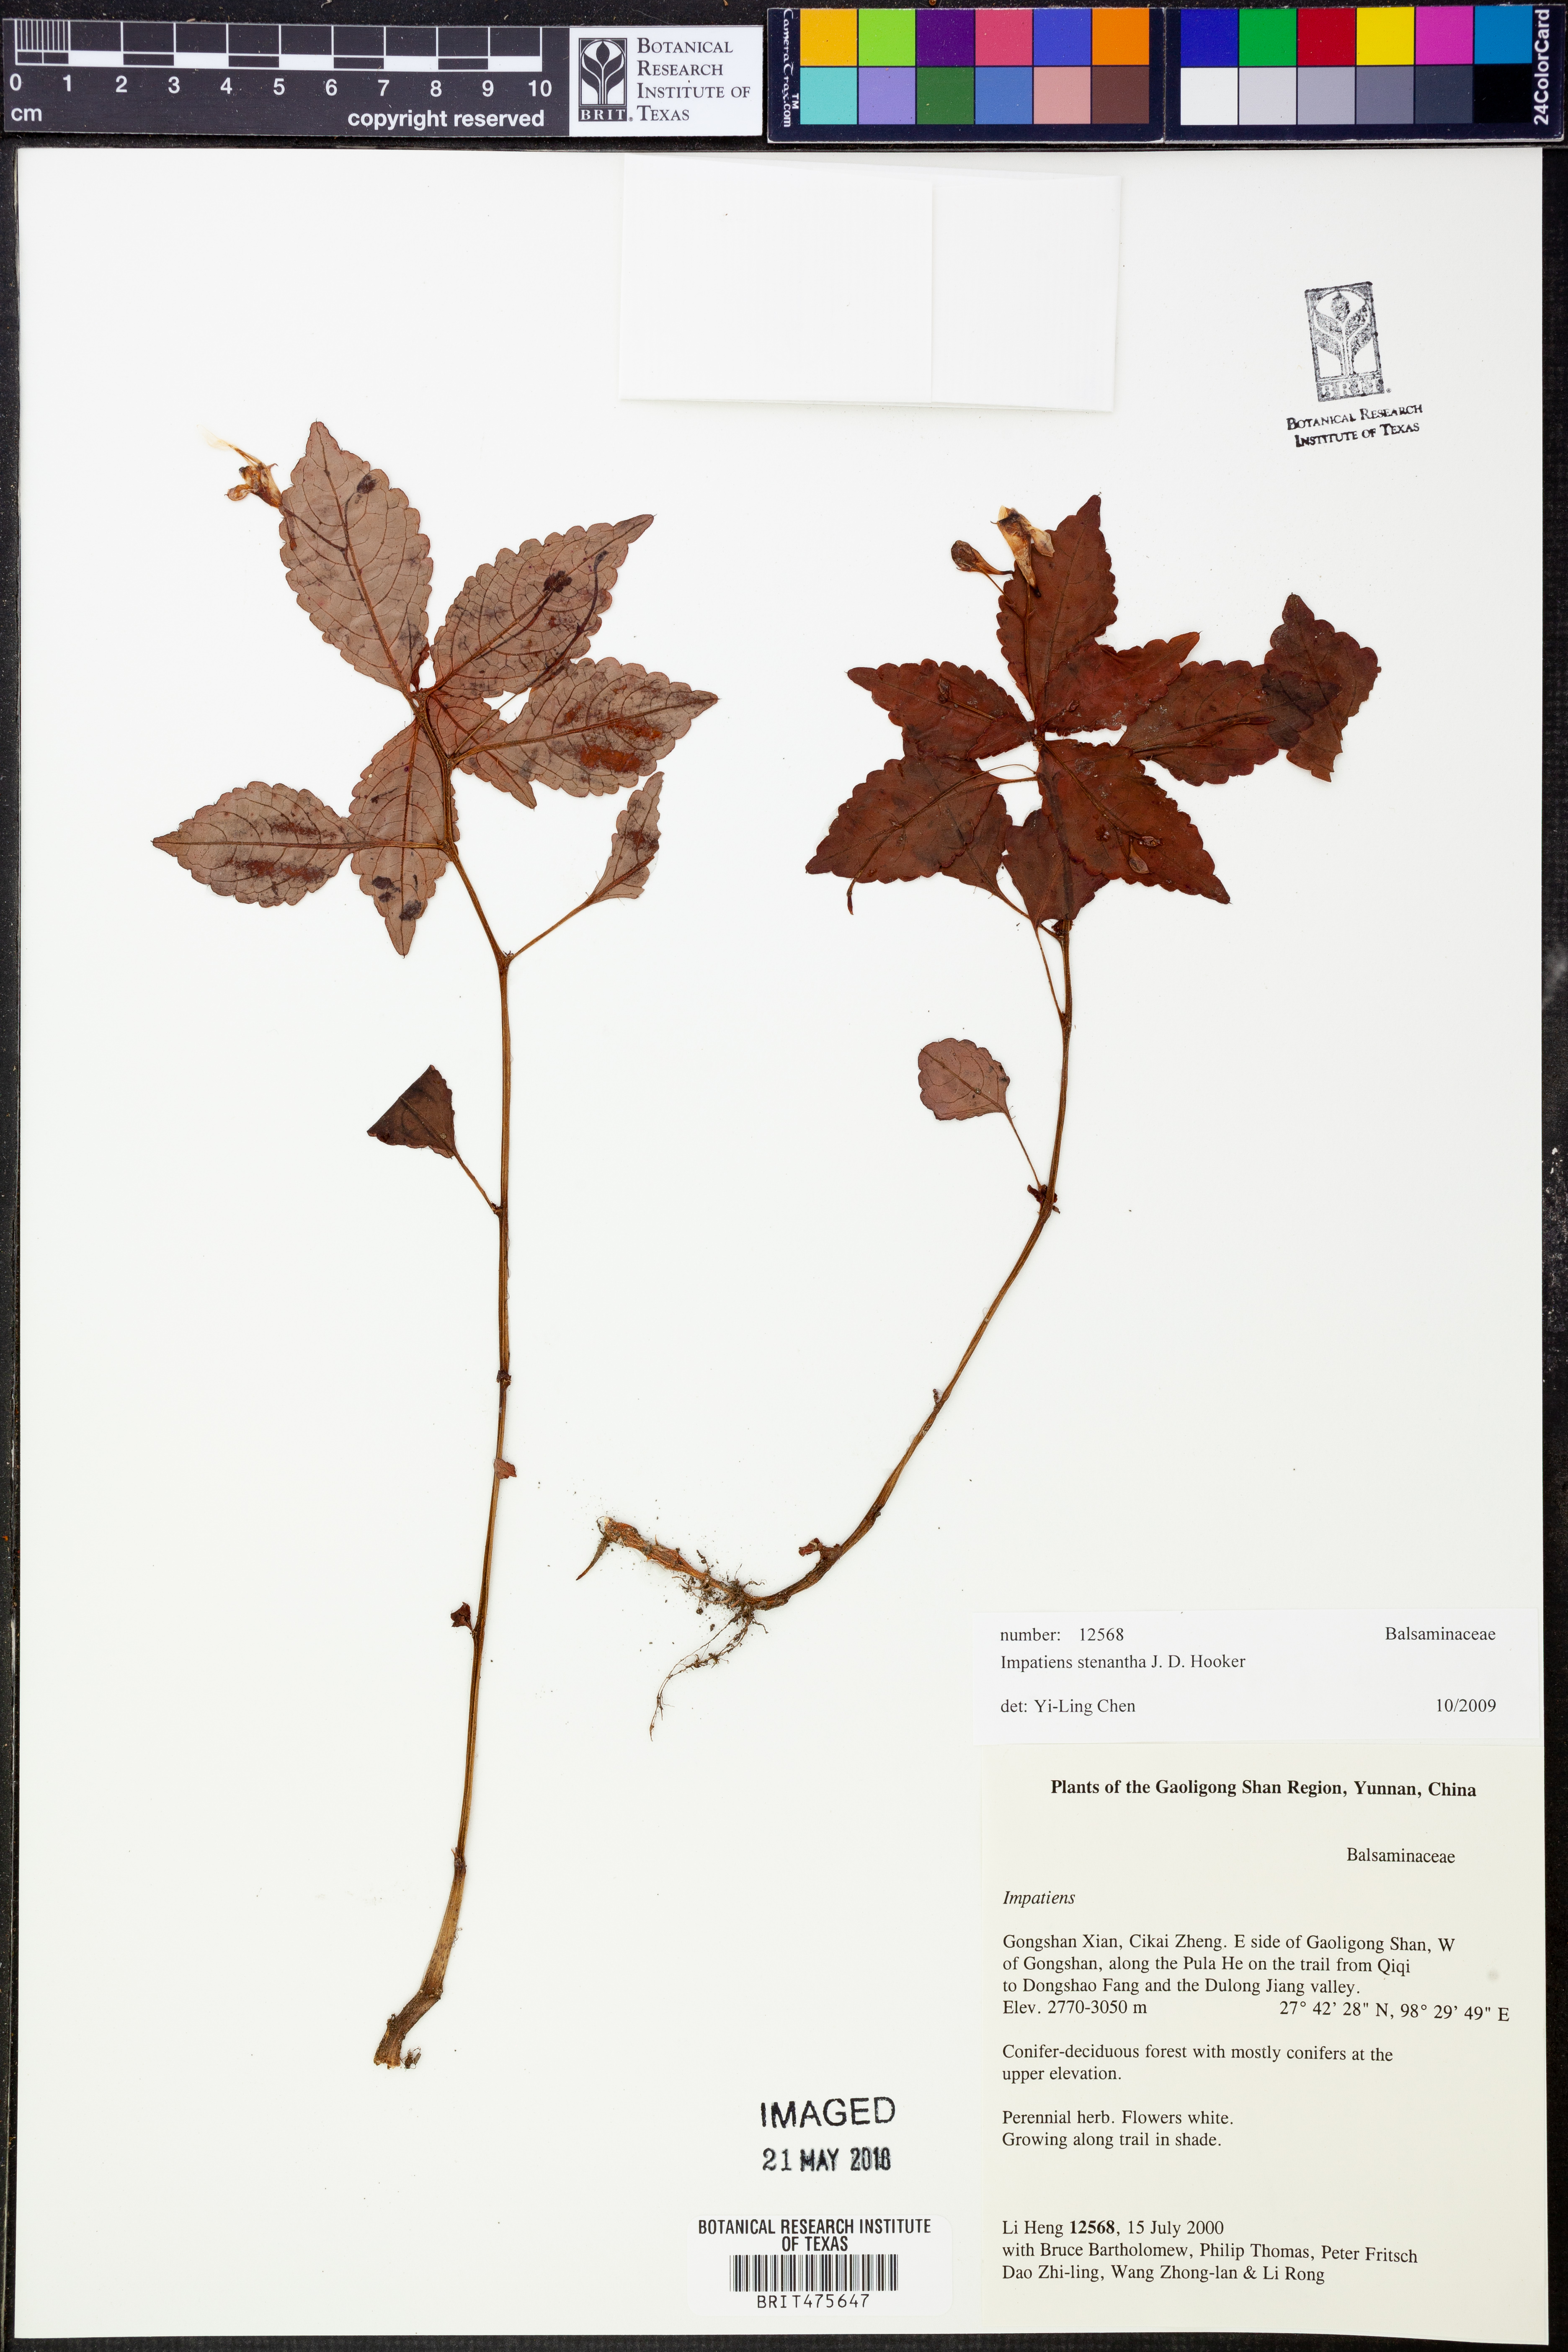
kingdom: Plantae
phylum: Tracheophyta
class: Magnoliopsida
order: Ericales
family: Balsaminaceae
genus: Impatiens
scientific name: Impatiens stenantha
